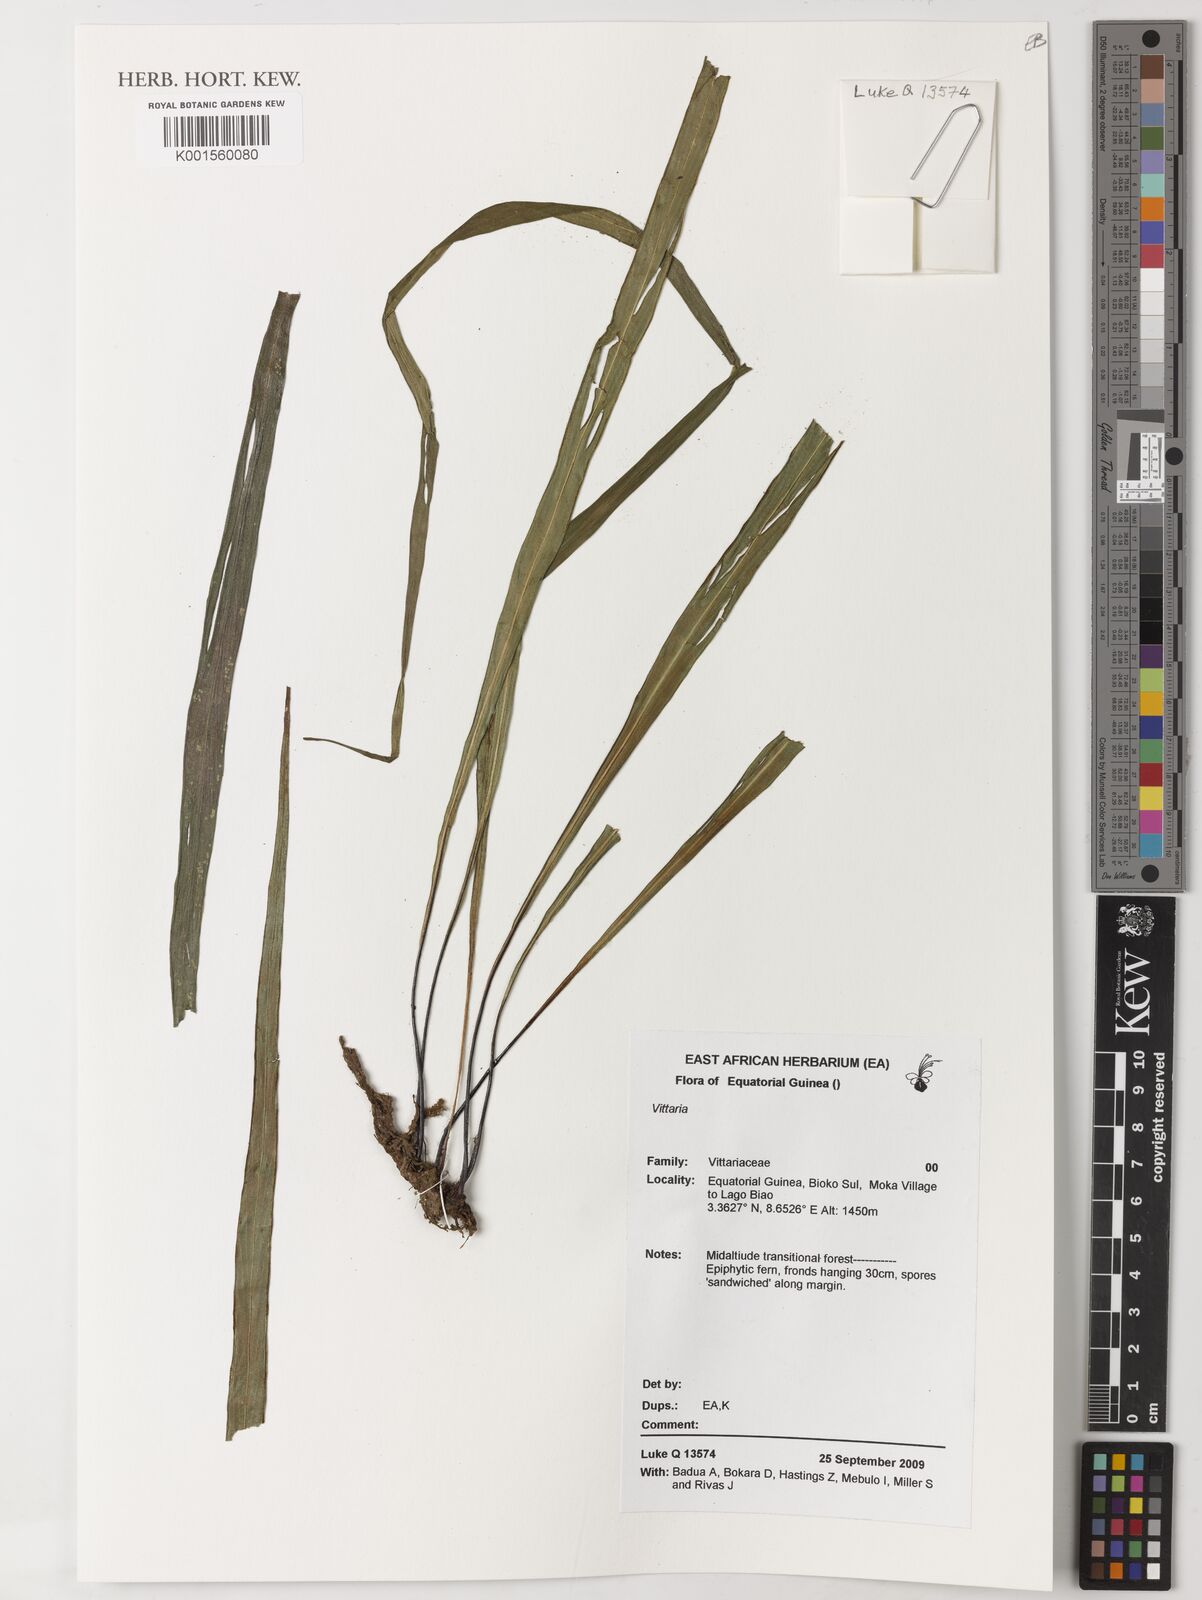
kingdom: Plantae
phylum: Tracheophyta
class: Polypodiopsida
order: Polypodiales
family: Pteridaceae
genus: Vittaria
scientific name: Vittaria
